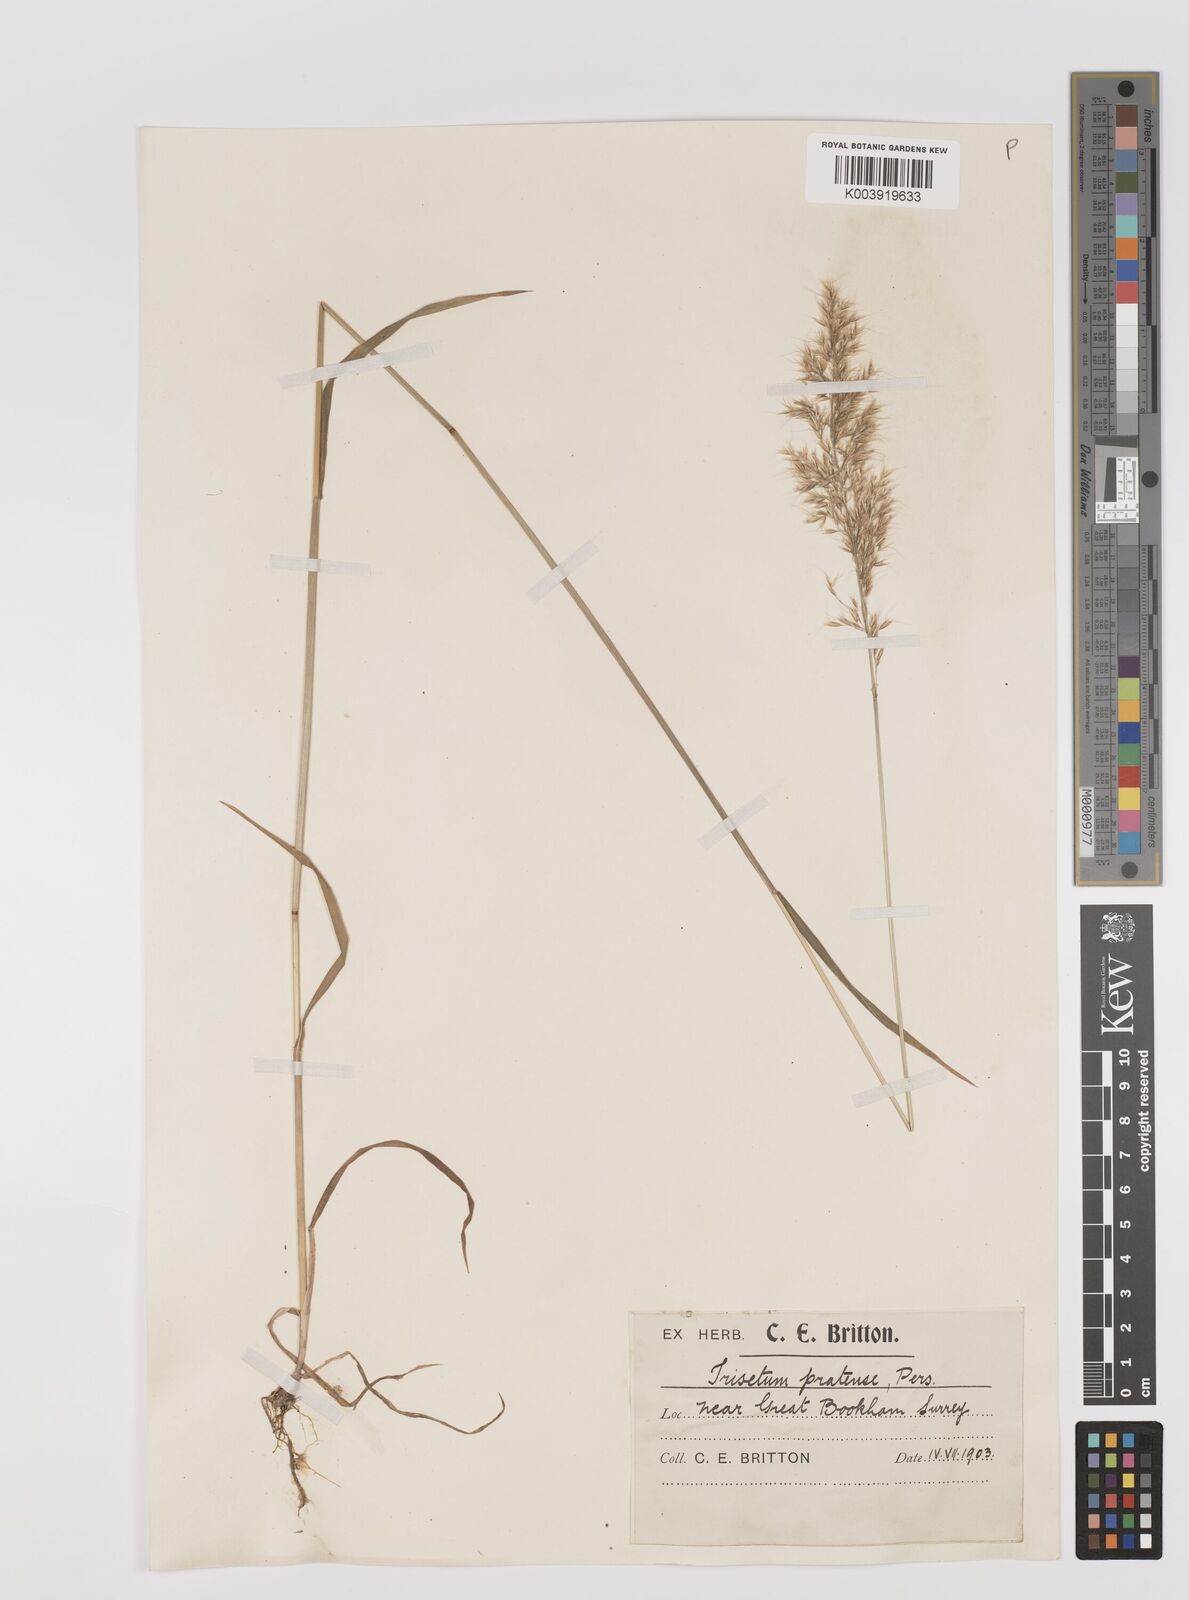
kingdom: Plantae
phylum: Tracheophyta
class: Liliopsida
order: Poales
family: Poaceae
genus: Trisetum
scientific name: Trisetum flavescens
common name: Yellow oat-grass
